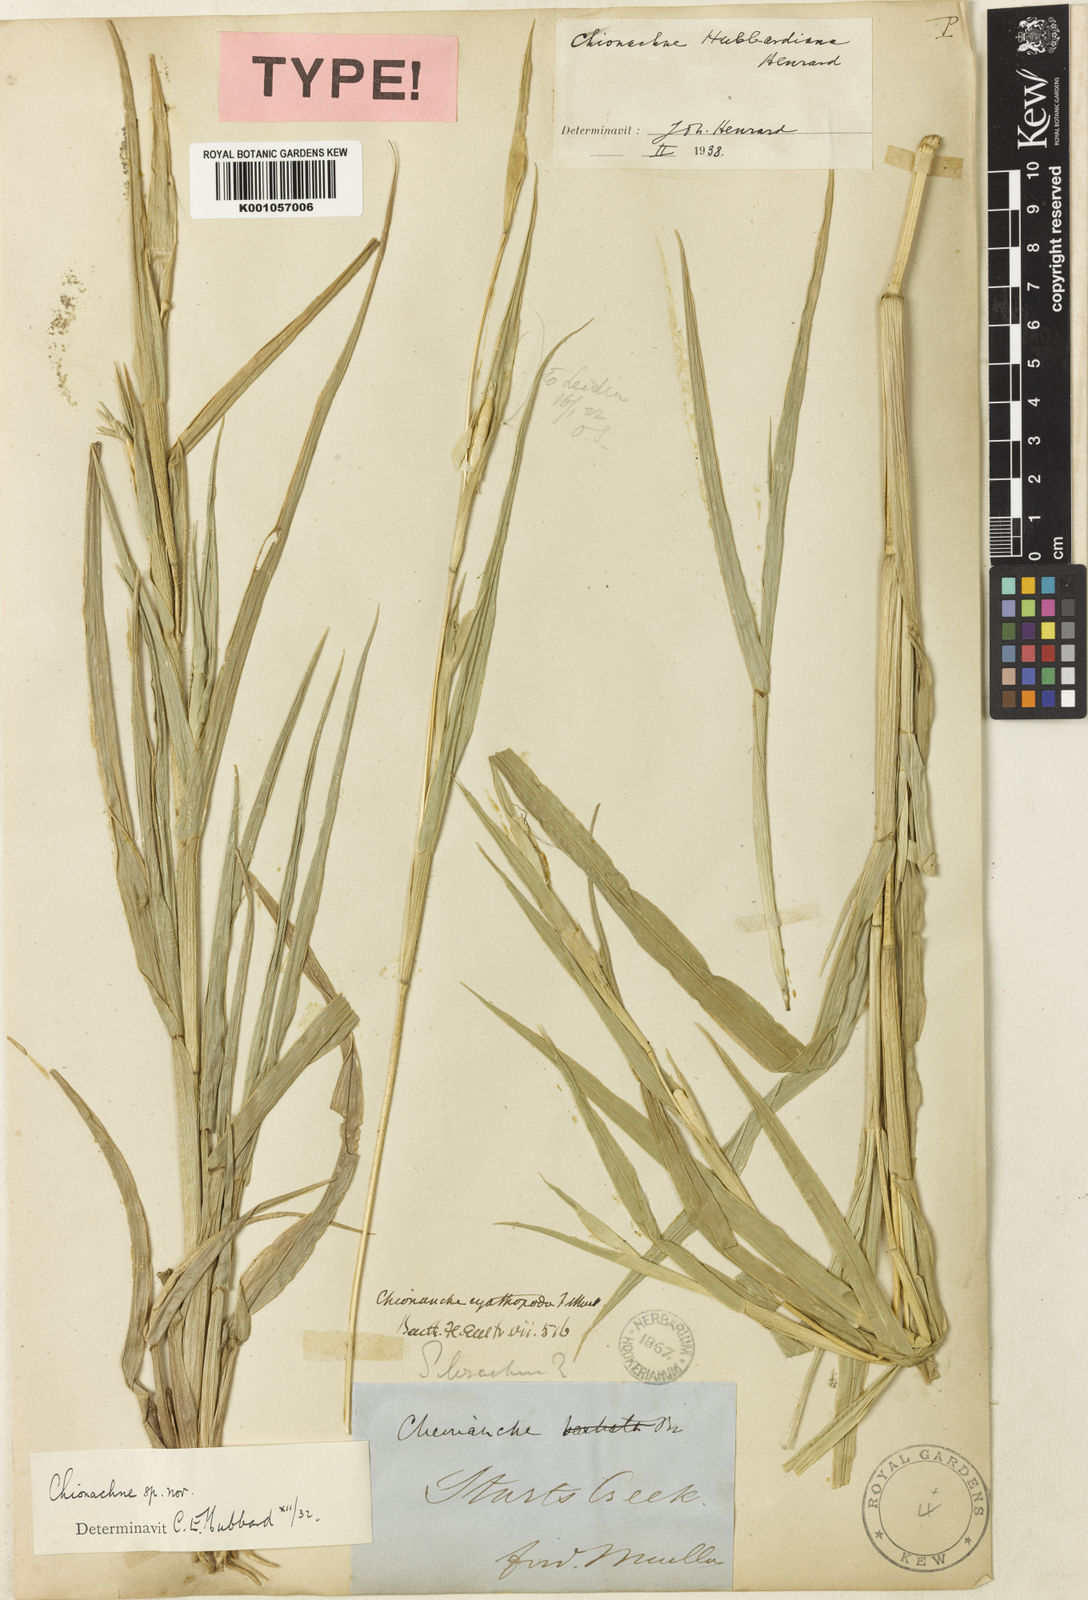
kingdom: Plantae
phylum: Tracheophyta
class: Liliopsida
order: Poales
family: Poaceae
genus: Polytoca
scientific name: Polytoca hubbardiana
